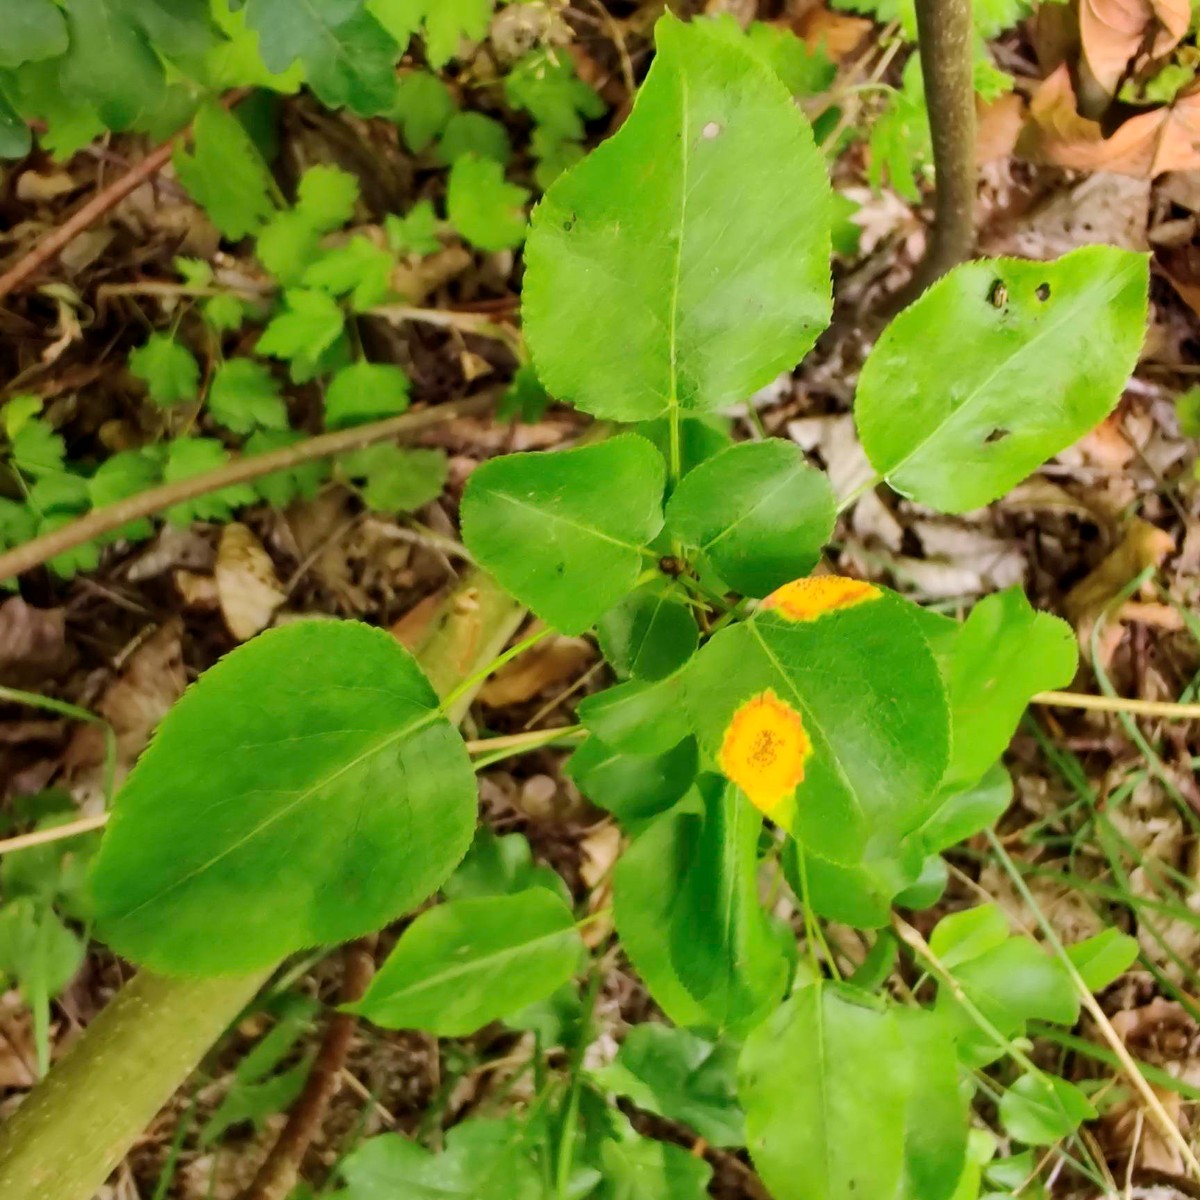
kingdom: Fungi
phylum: Basidiomycota
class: Pucciniomycetes
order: Pucciniales
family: Gymnosporangiaceae
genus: Gymnosporangium
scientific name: Gymnosporangium sabinae
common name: pæregitter-bævrerust
